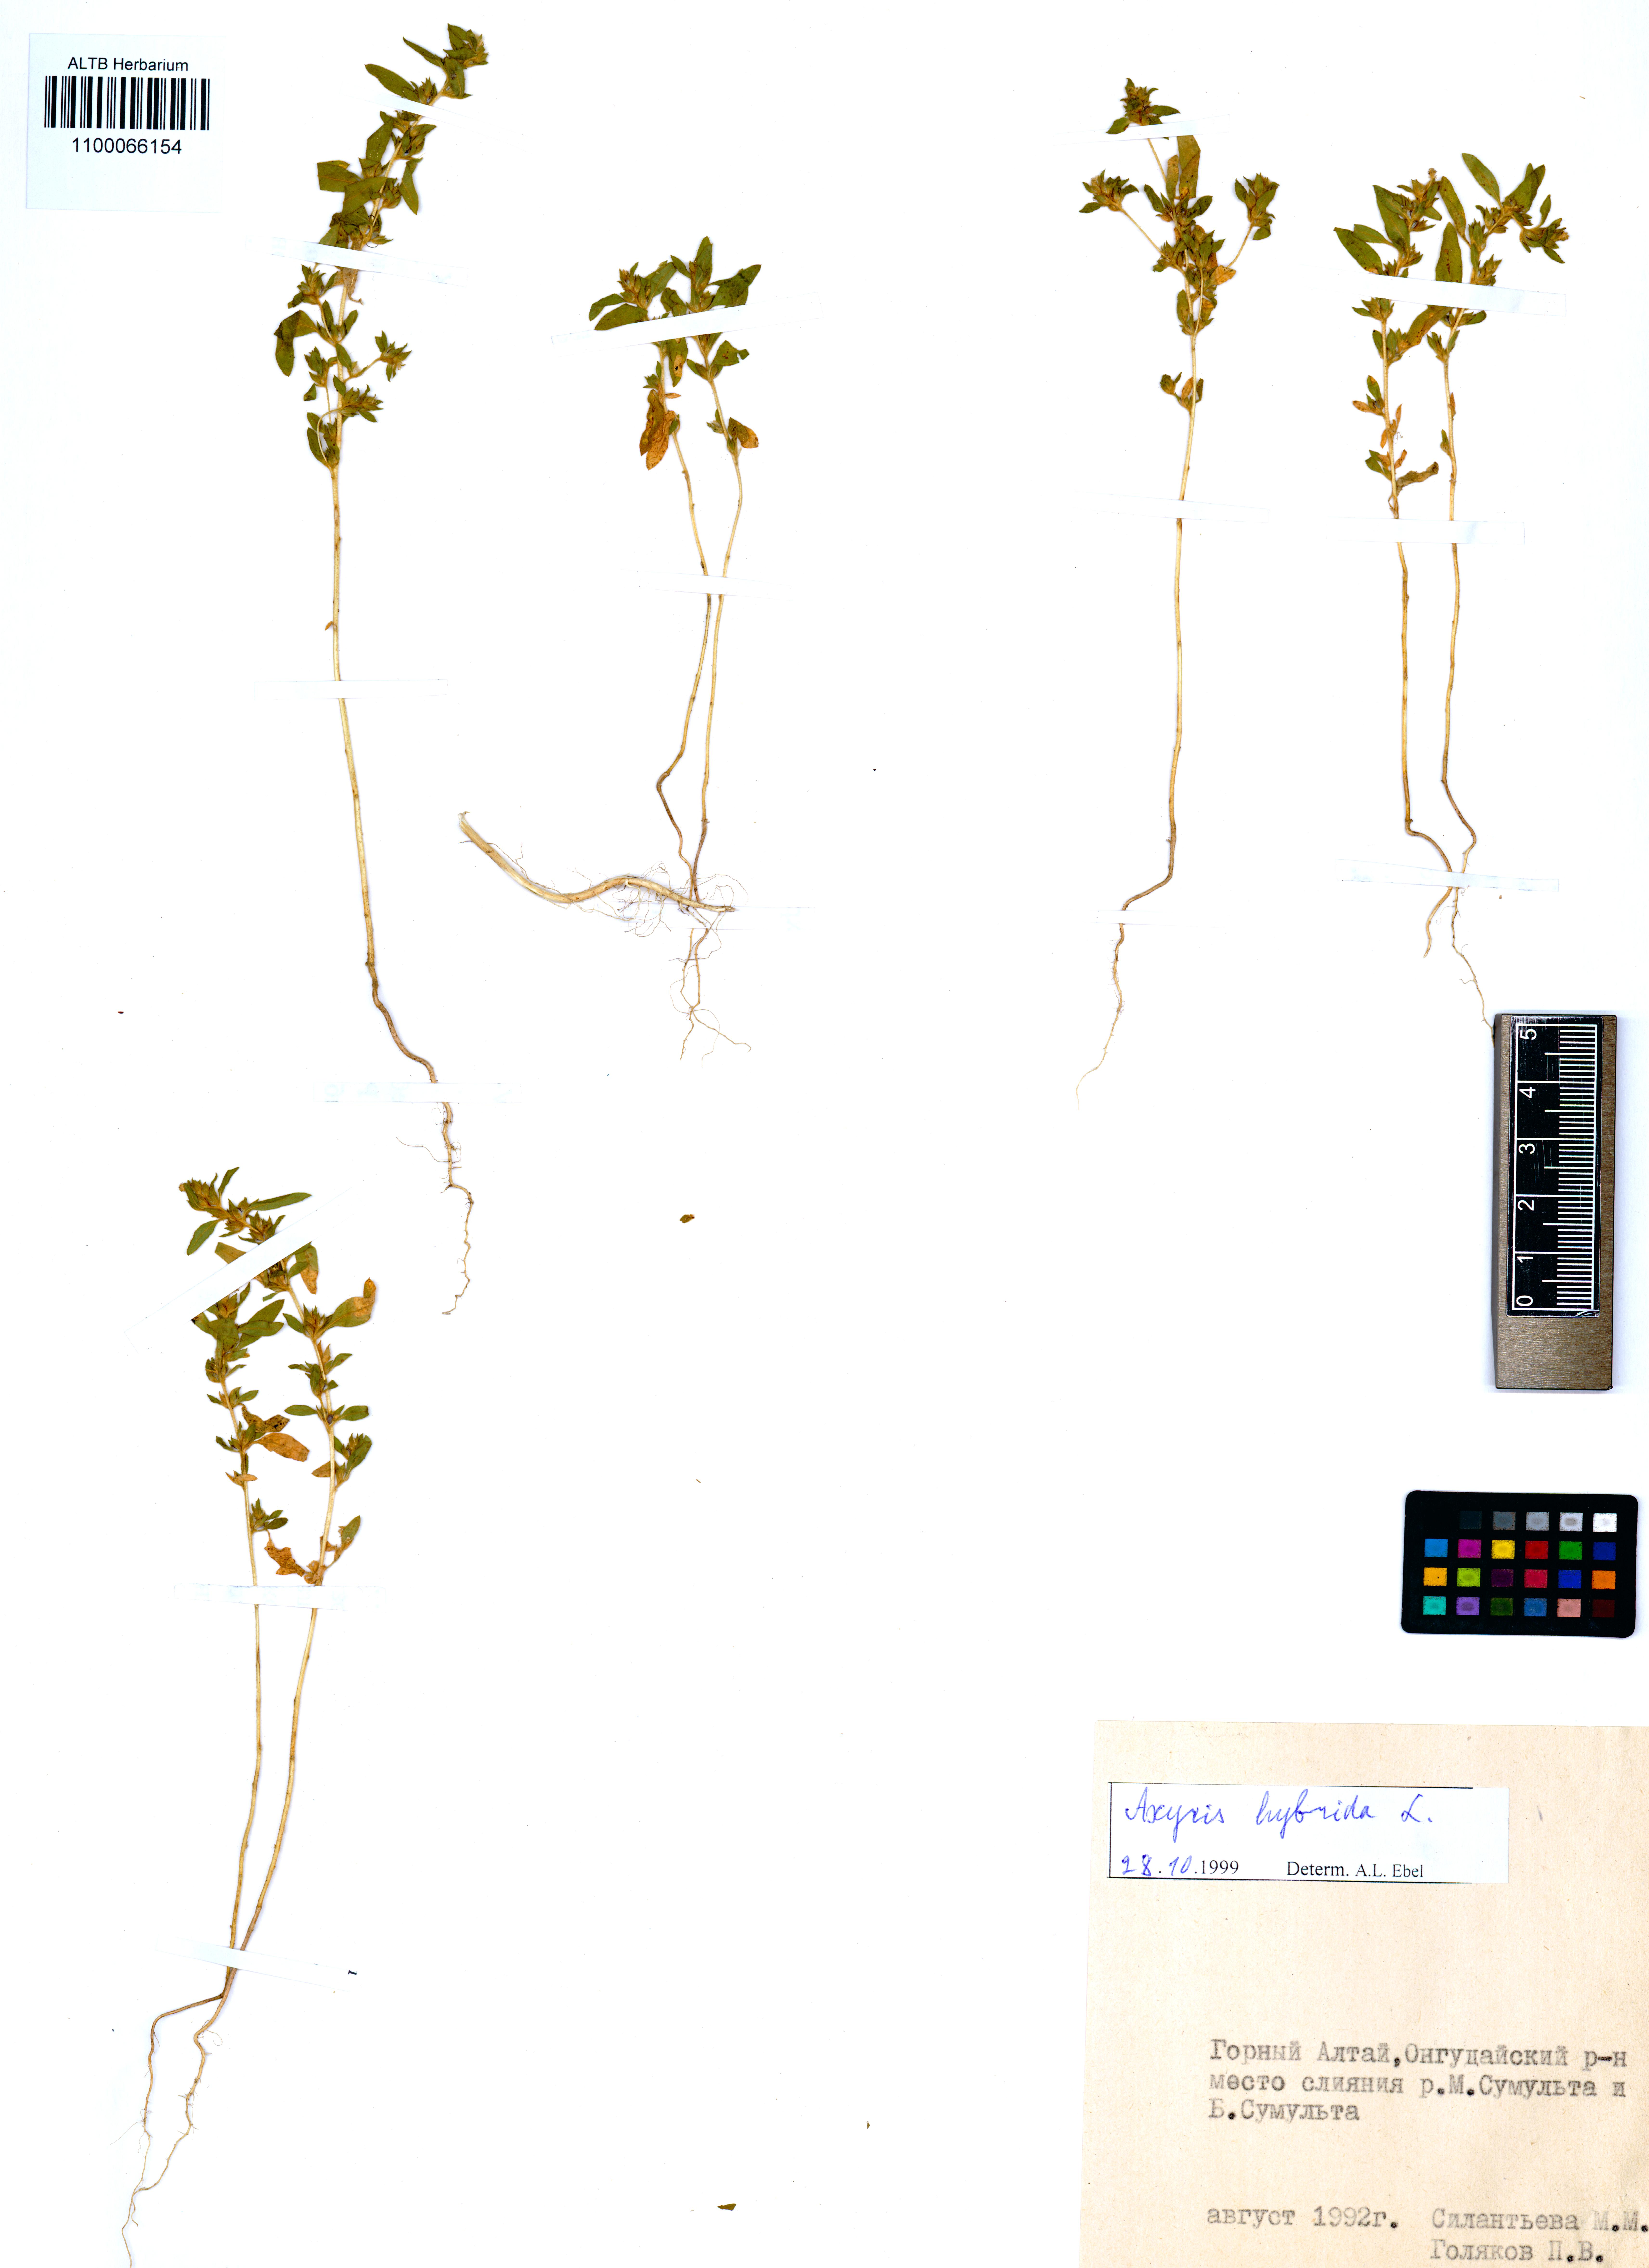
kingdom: Plantae
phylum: Tracheophyta
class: Magnoliopsida
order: Caryophyllales
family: Amaranthaceae
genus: Axyris
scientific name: Axyris hybrida
